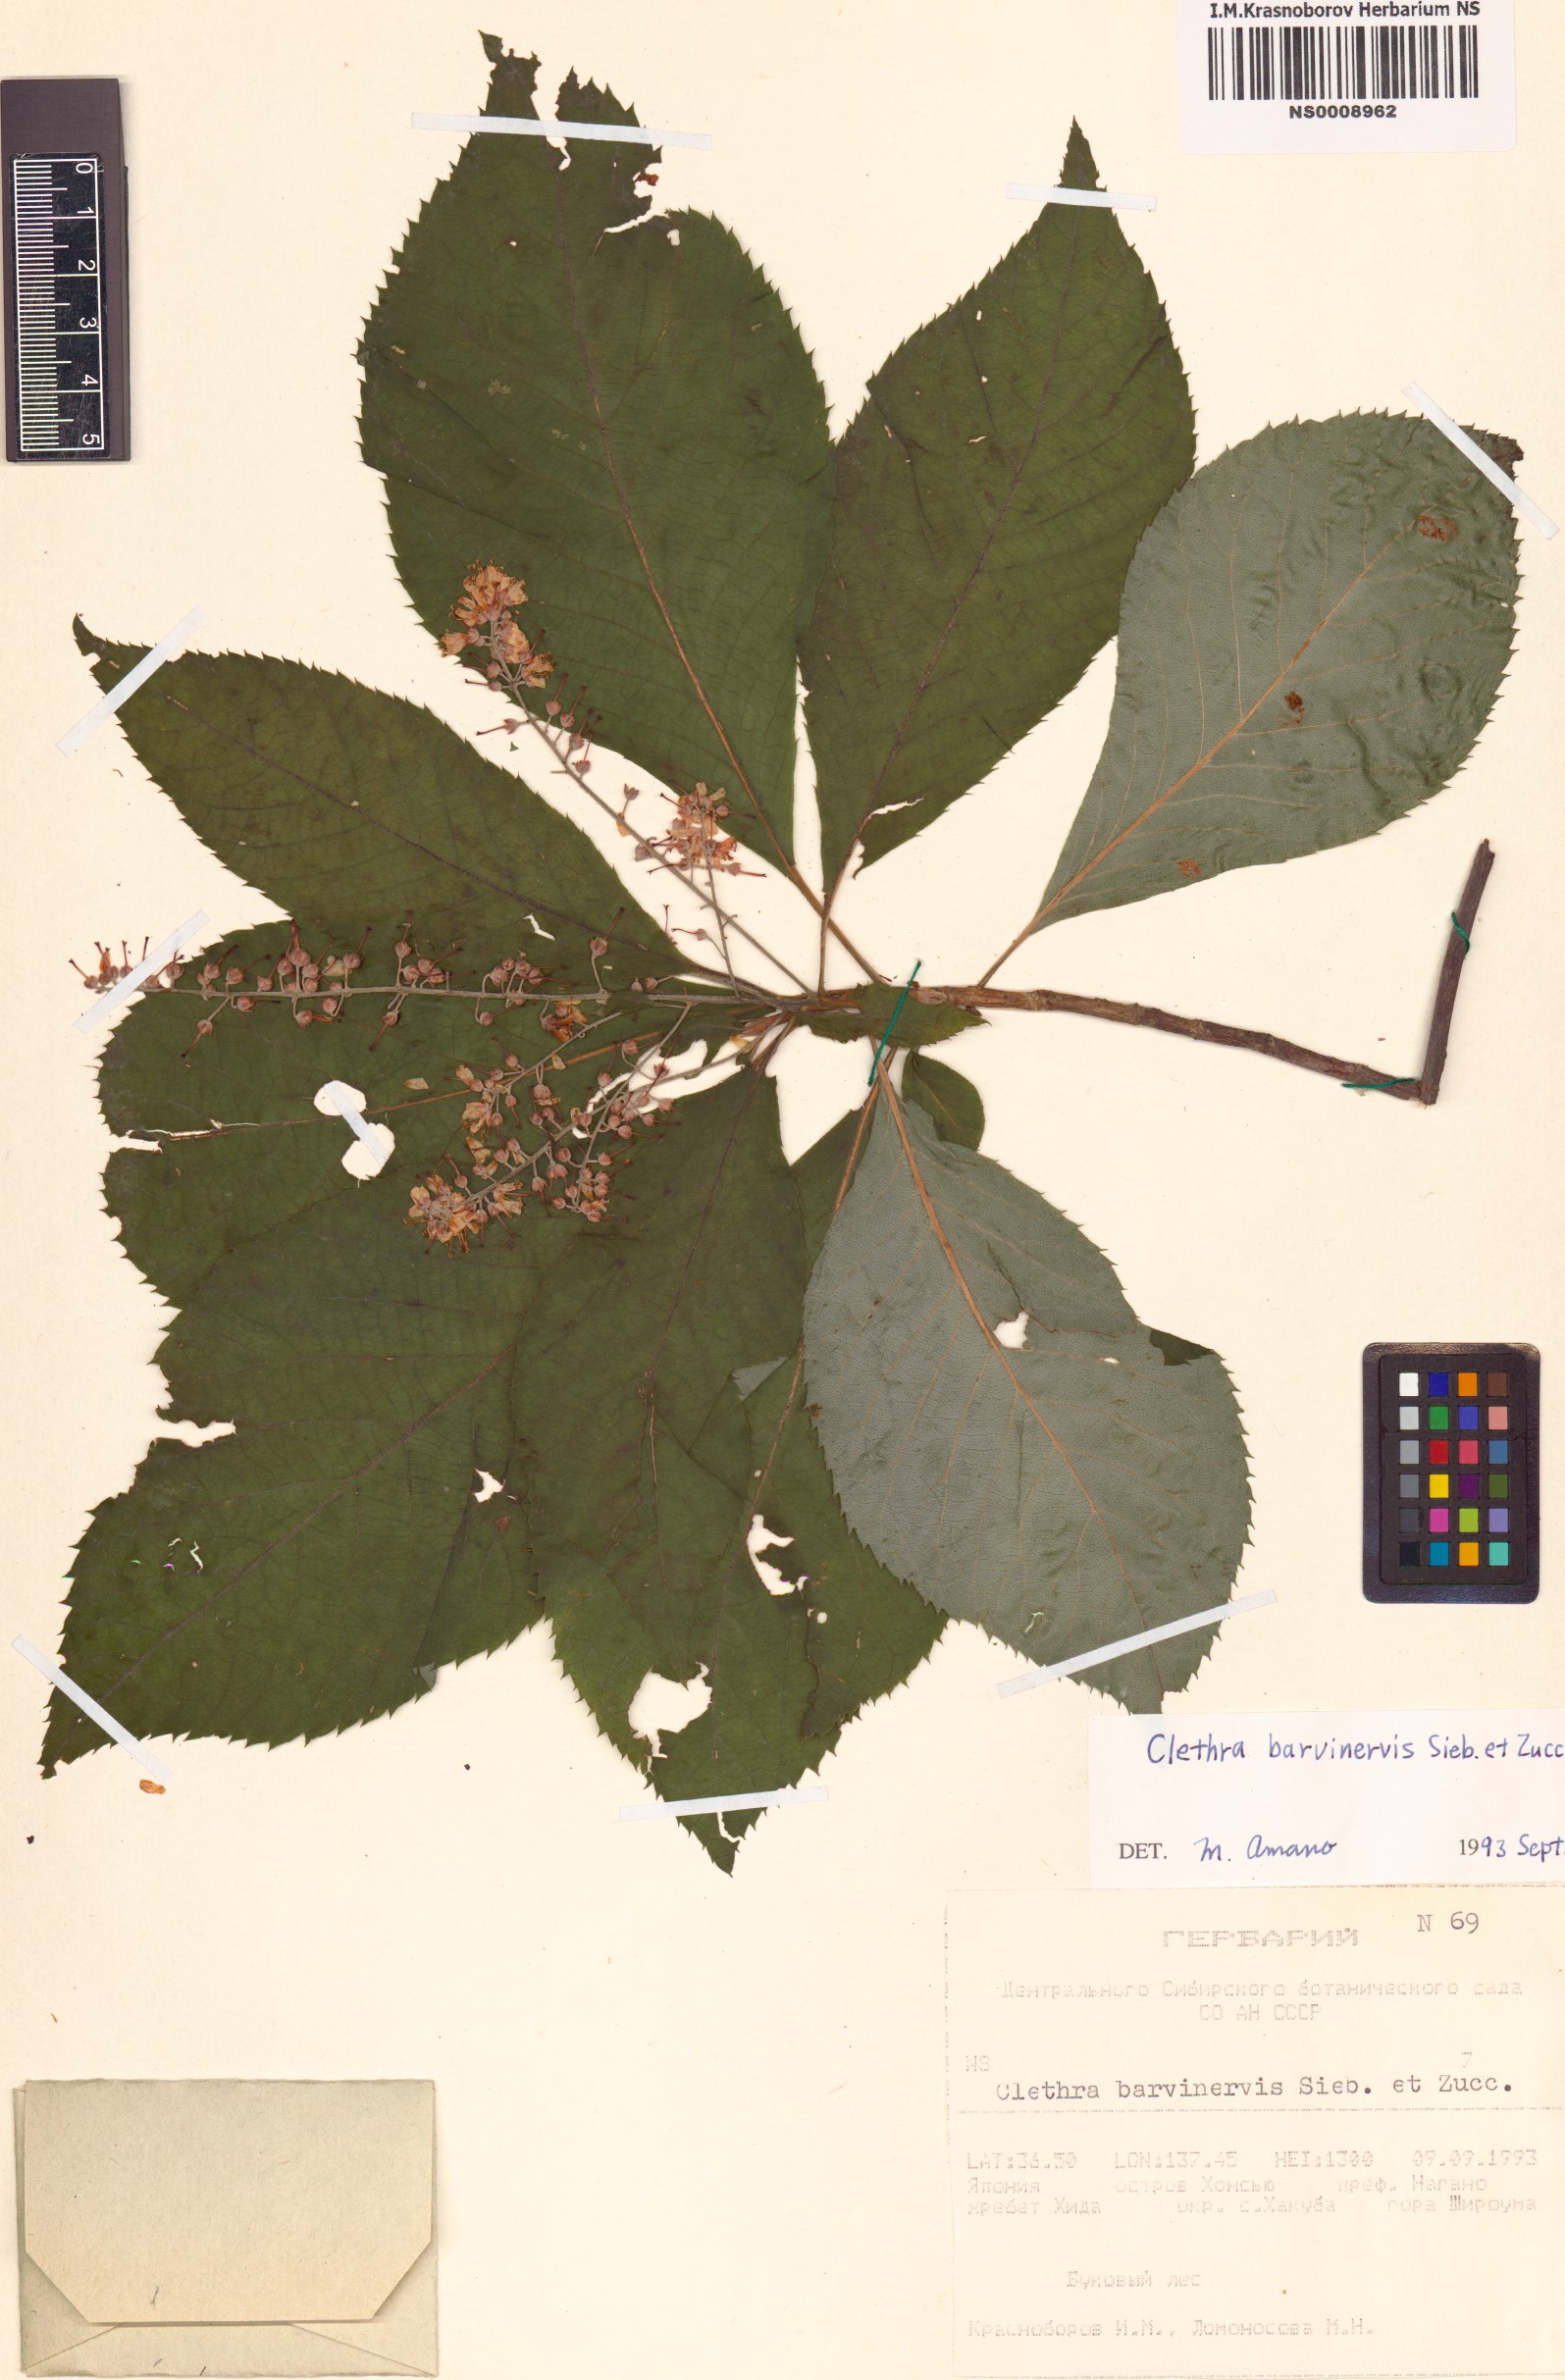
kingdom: Plantae
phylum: Tracheophyta
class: Magnoliopsida
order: Ericales
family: Clethraceae
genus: Clethra
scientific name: Clethra barbinervis
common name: Japanese clethra
